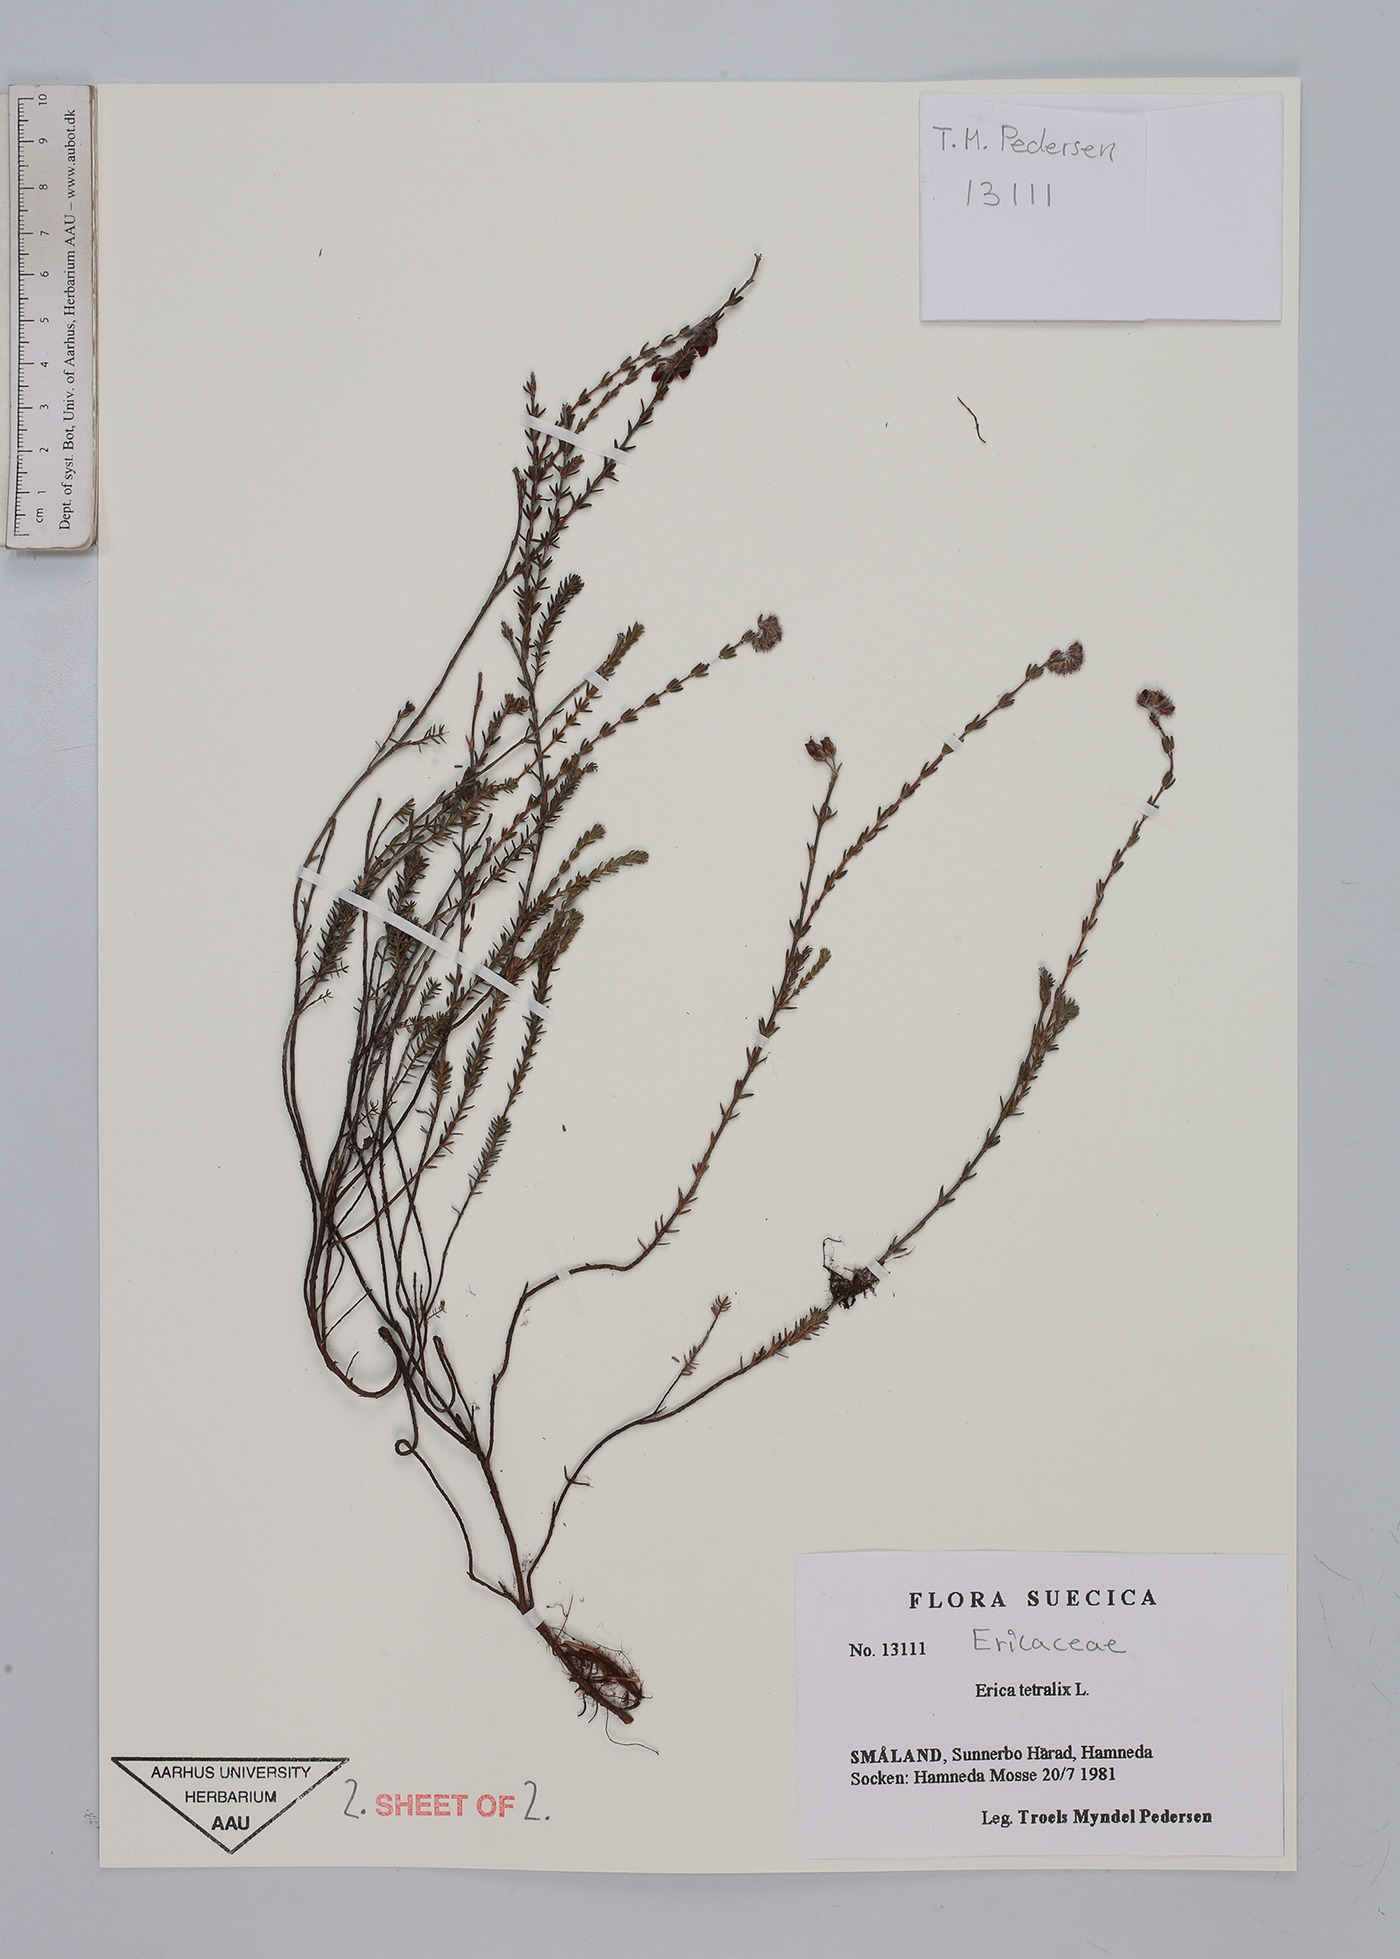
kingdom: Plantae
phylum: Tracheophyta
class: Magnoliopsida
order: Ericales
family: Ericaceae
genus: Erica
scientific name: Erica tetralix
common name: Cross-leaved heath
